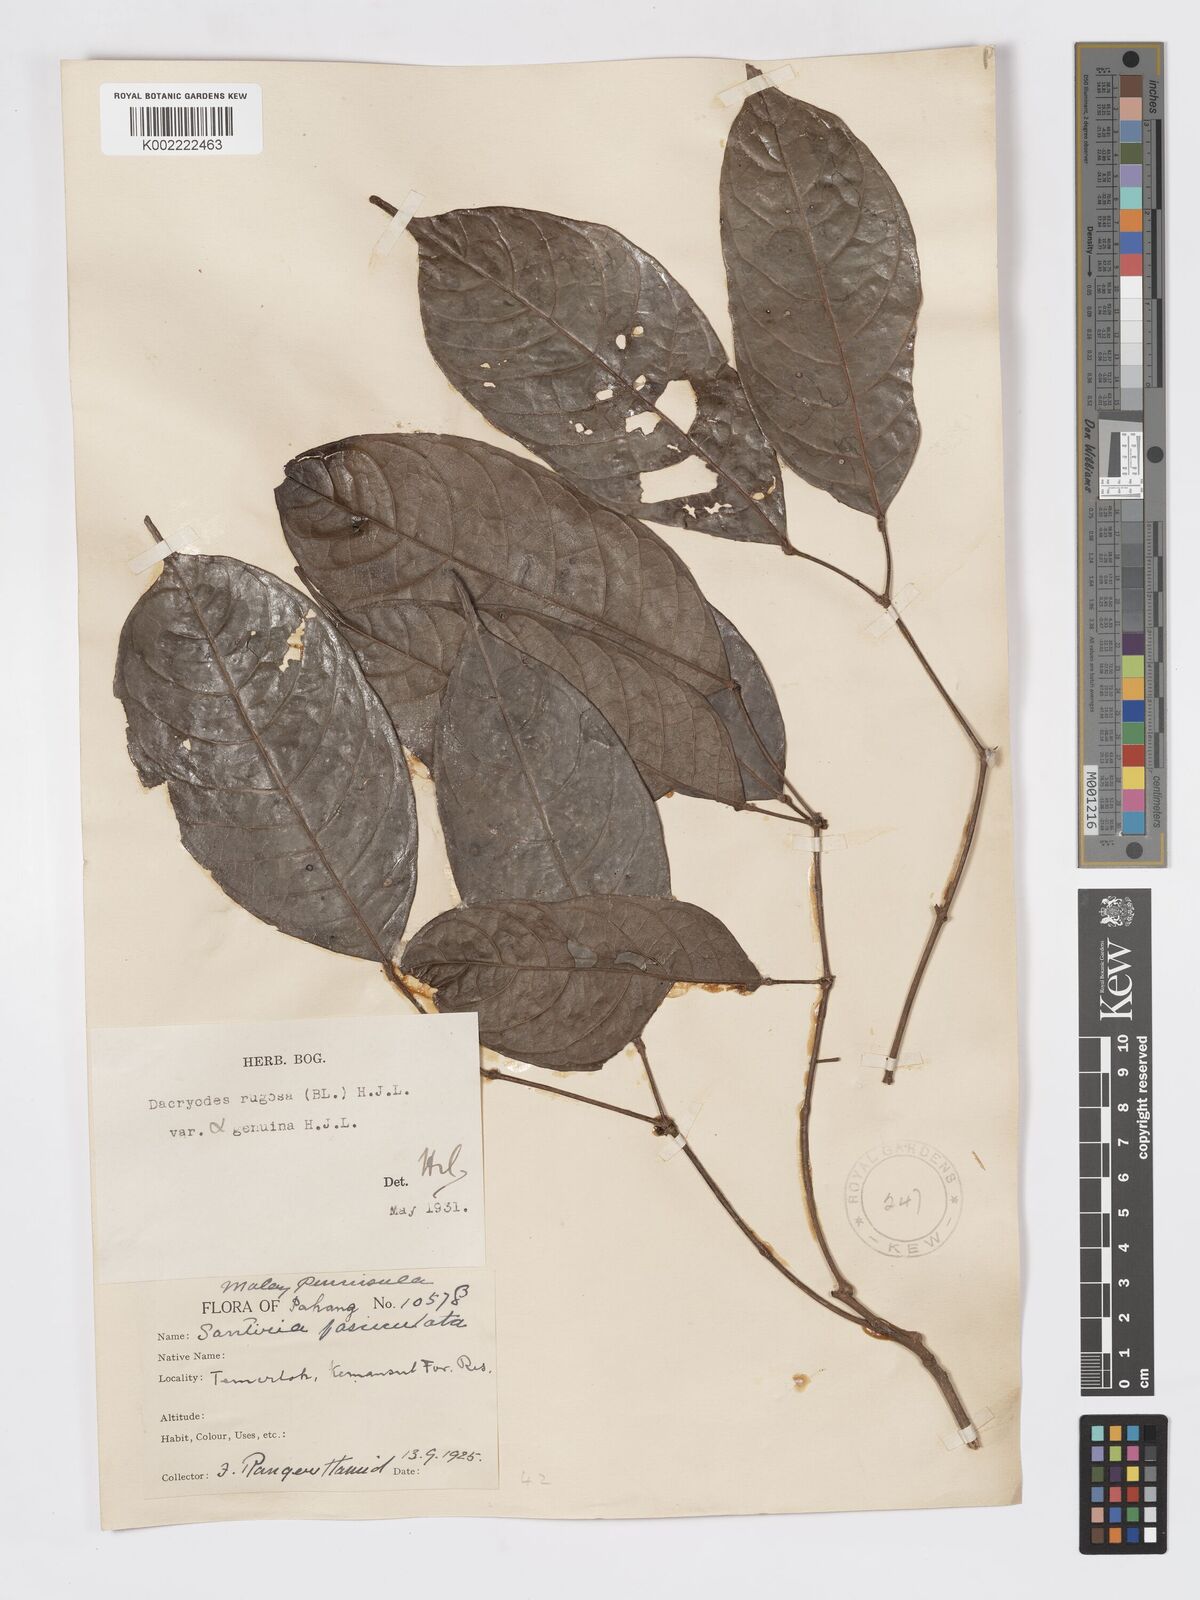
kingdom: Plantae
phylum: Tracheophyta
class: Magnoliopsida
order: Sapindales
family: Burseraceae
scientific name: Burseraceae
